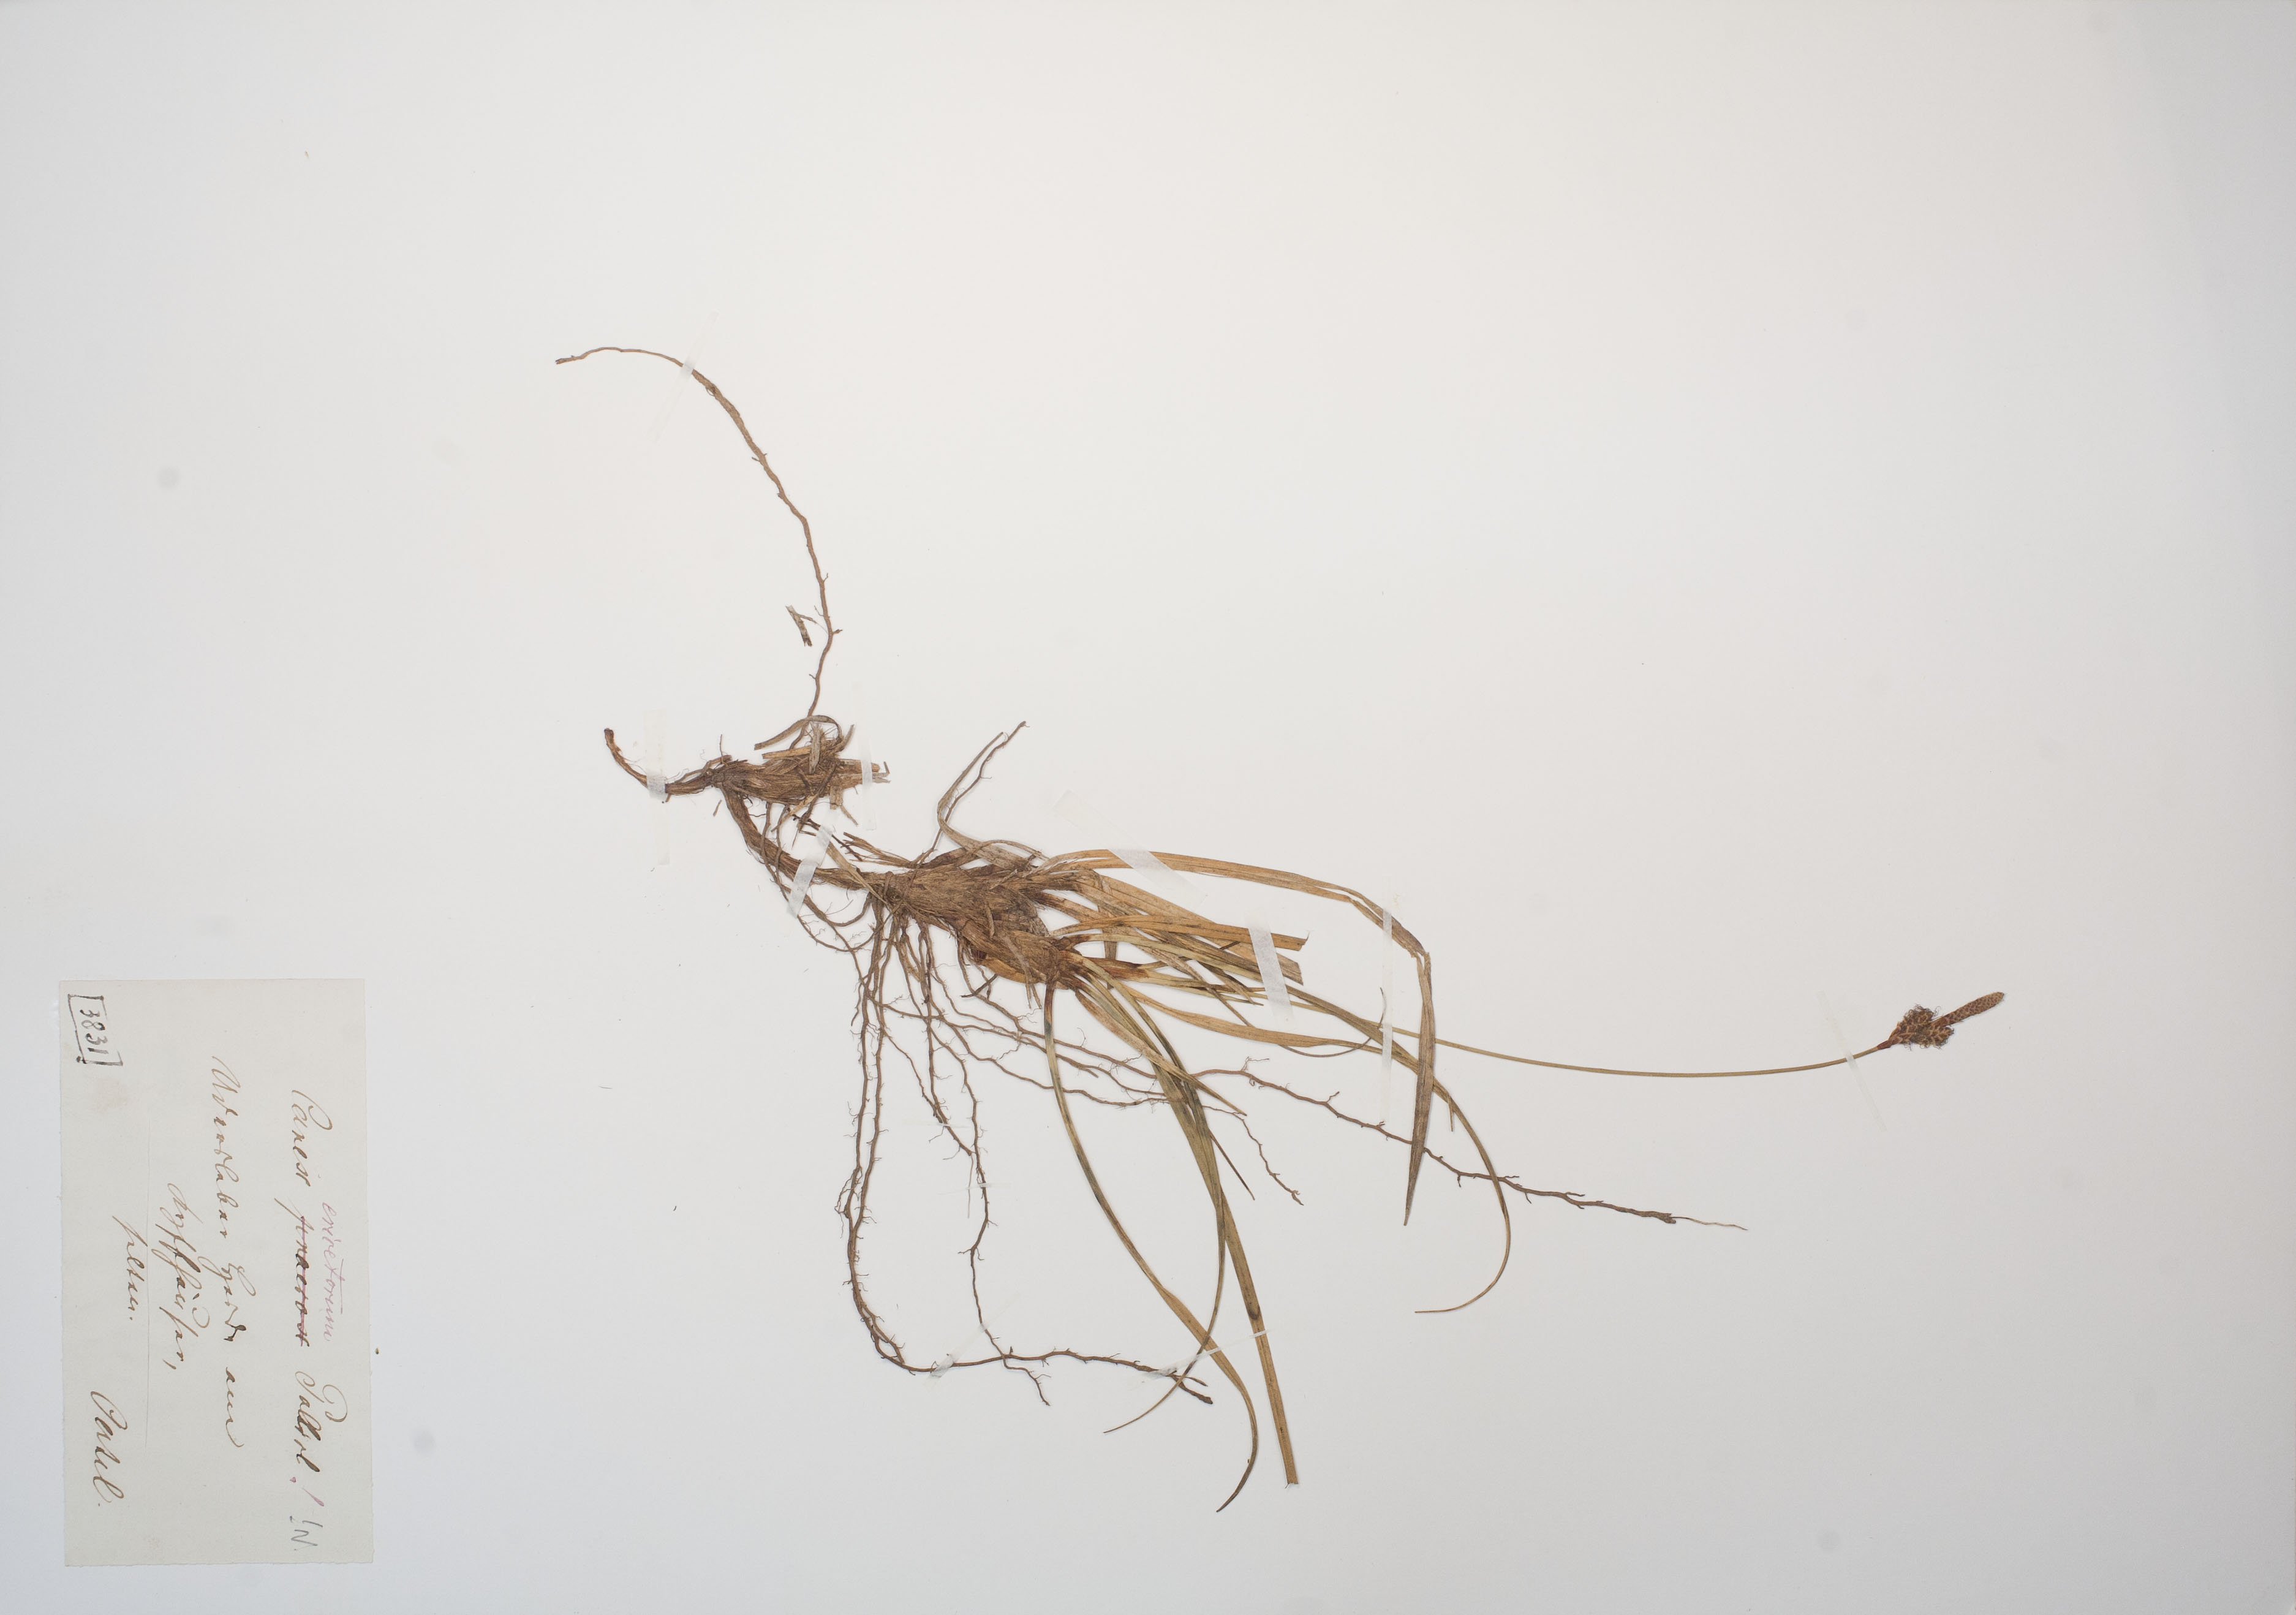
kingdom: Plantae
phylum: Tracheophyta
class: Liliopsida
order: Poales
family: Cyperaceae
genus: Carex
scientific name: Carex ericetorum
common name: Rare spring-sedge
